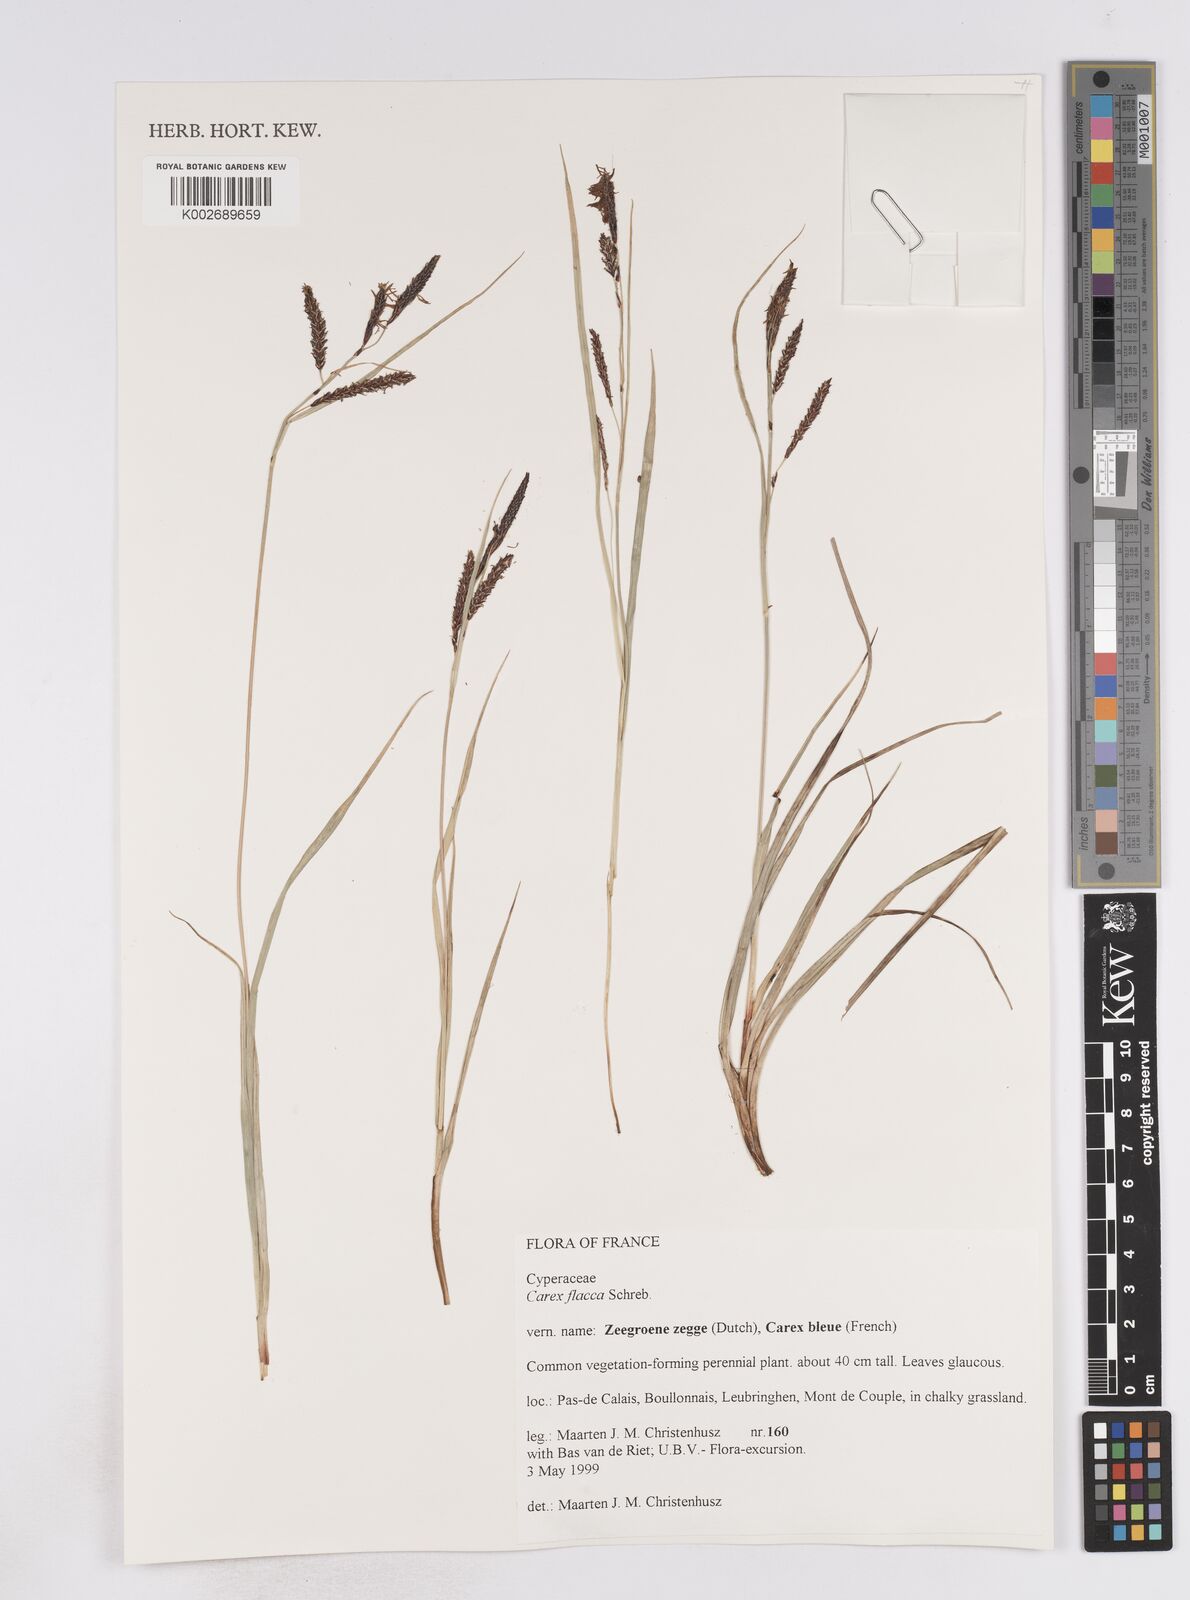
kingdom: Plantae
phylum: Tracheophyta
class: Liliopsida
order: Poales
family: Cyperaceae
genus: Carex
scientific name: Carex flacca
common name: Glaucous sedge
